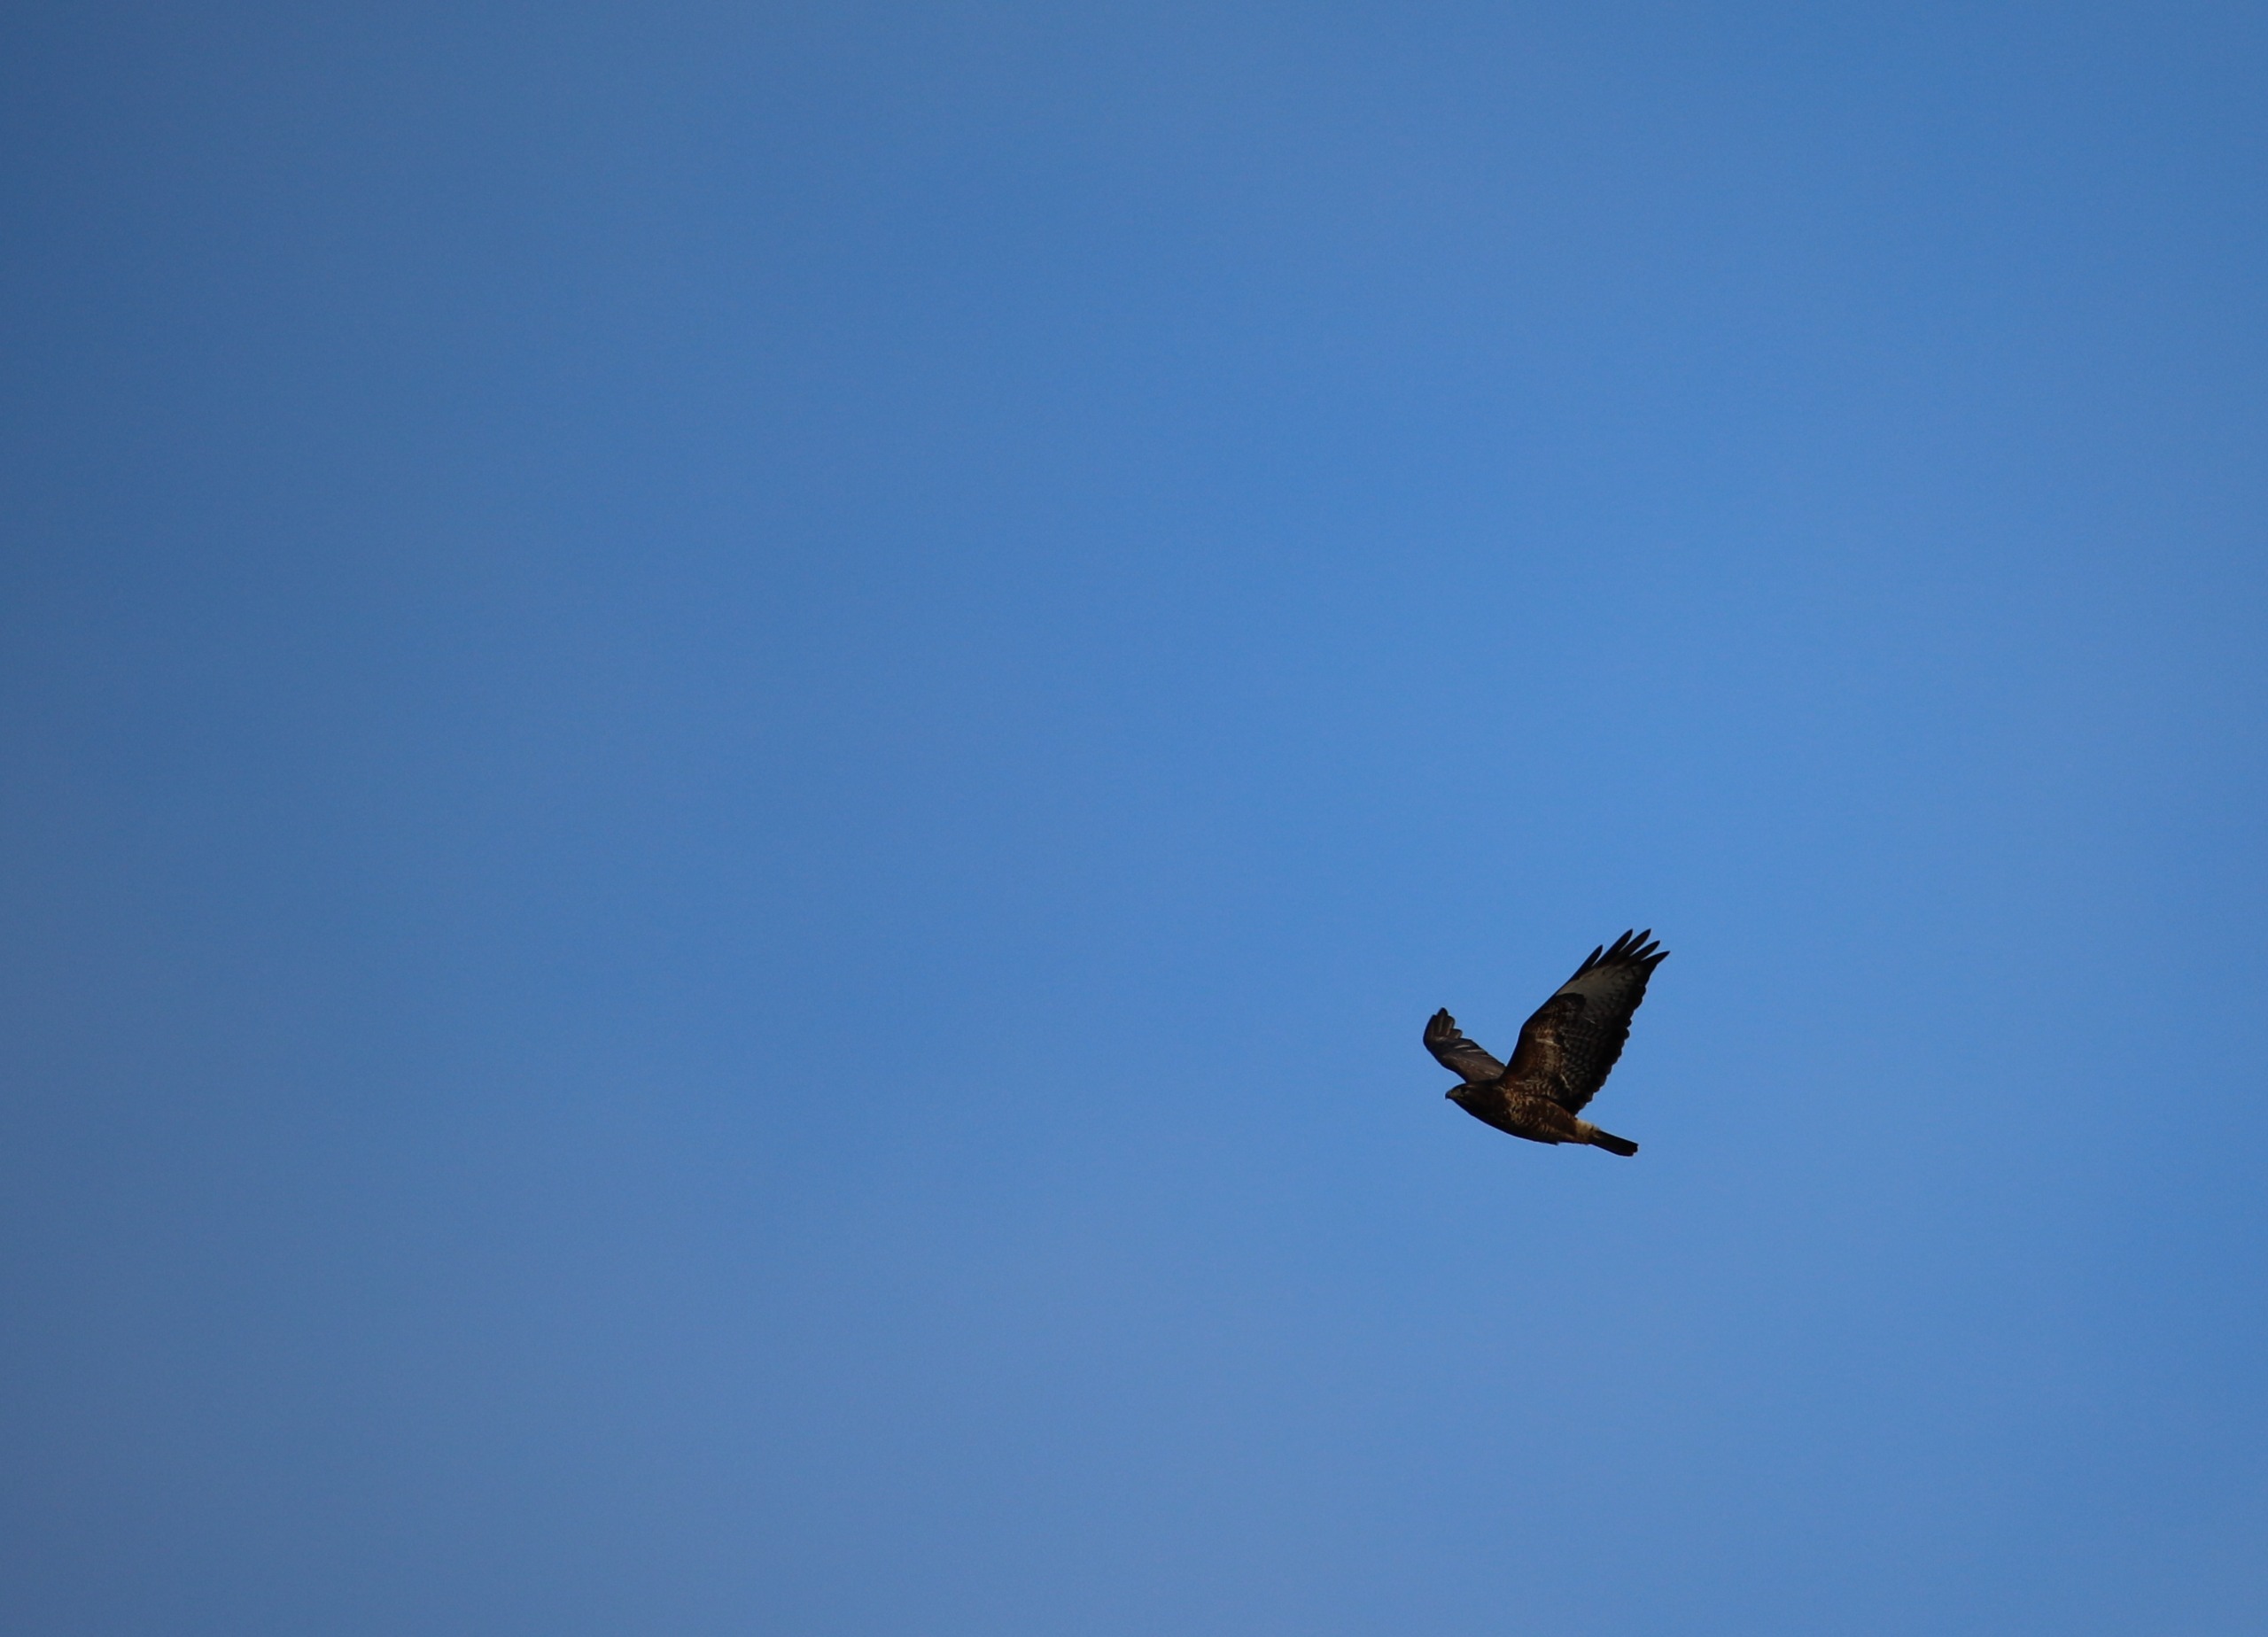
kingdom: Animalia
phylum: Chordata
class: Aves
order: Accipitriformes
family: Accipitridae
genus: Buteo
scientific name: Buteo buteo
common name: Musvåge
